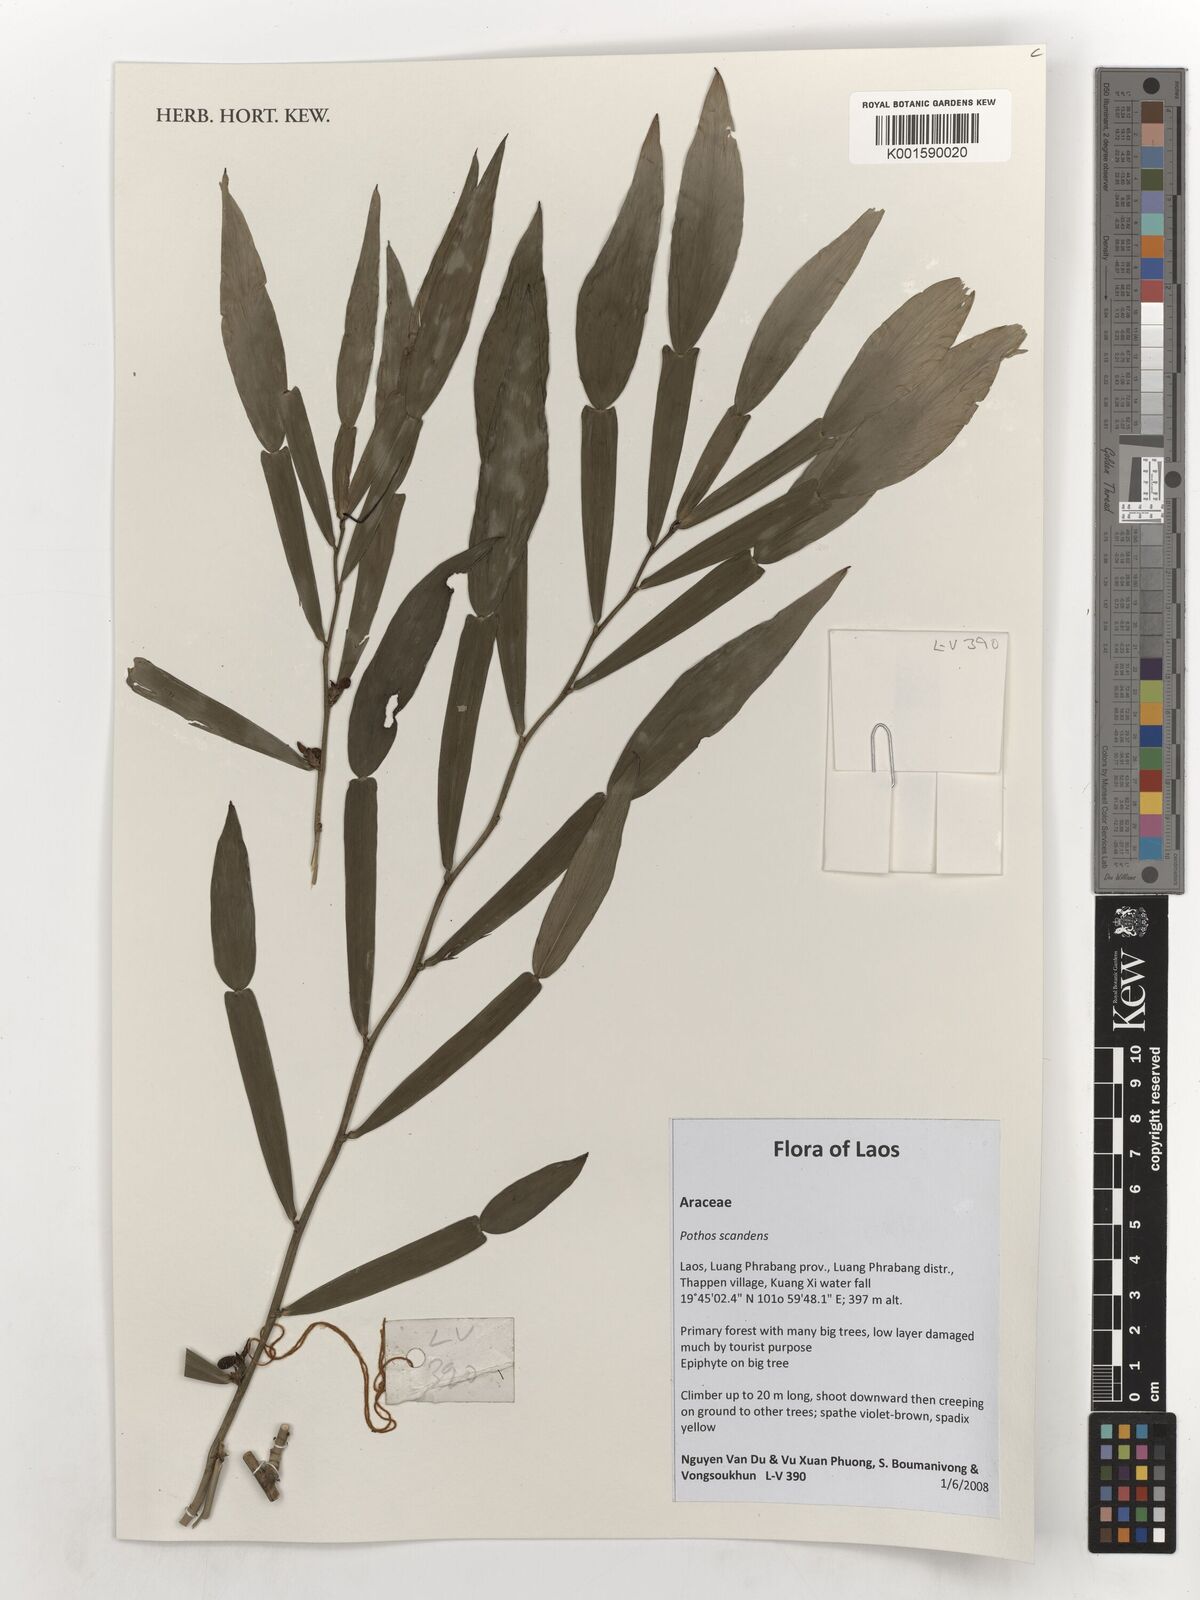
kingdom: Plantae
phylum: Tracheophyta
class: Liliopsida
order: Alismatales
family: Araceae
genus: Pothos
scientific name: Pothos scandens
